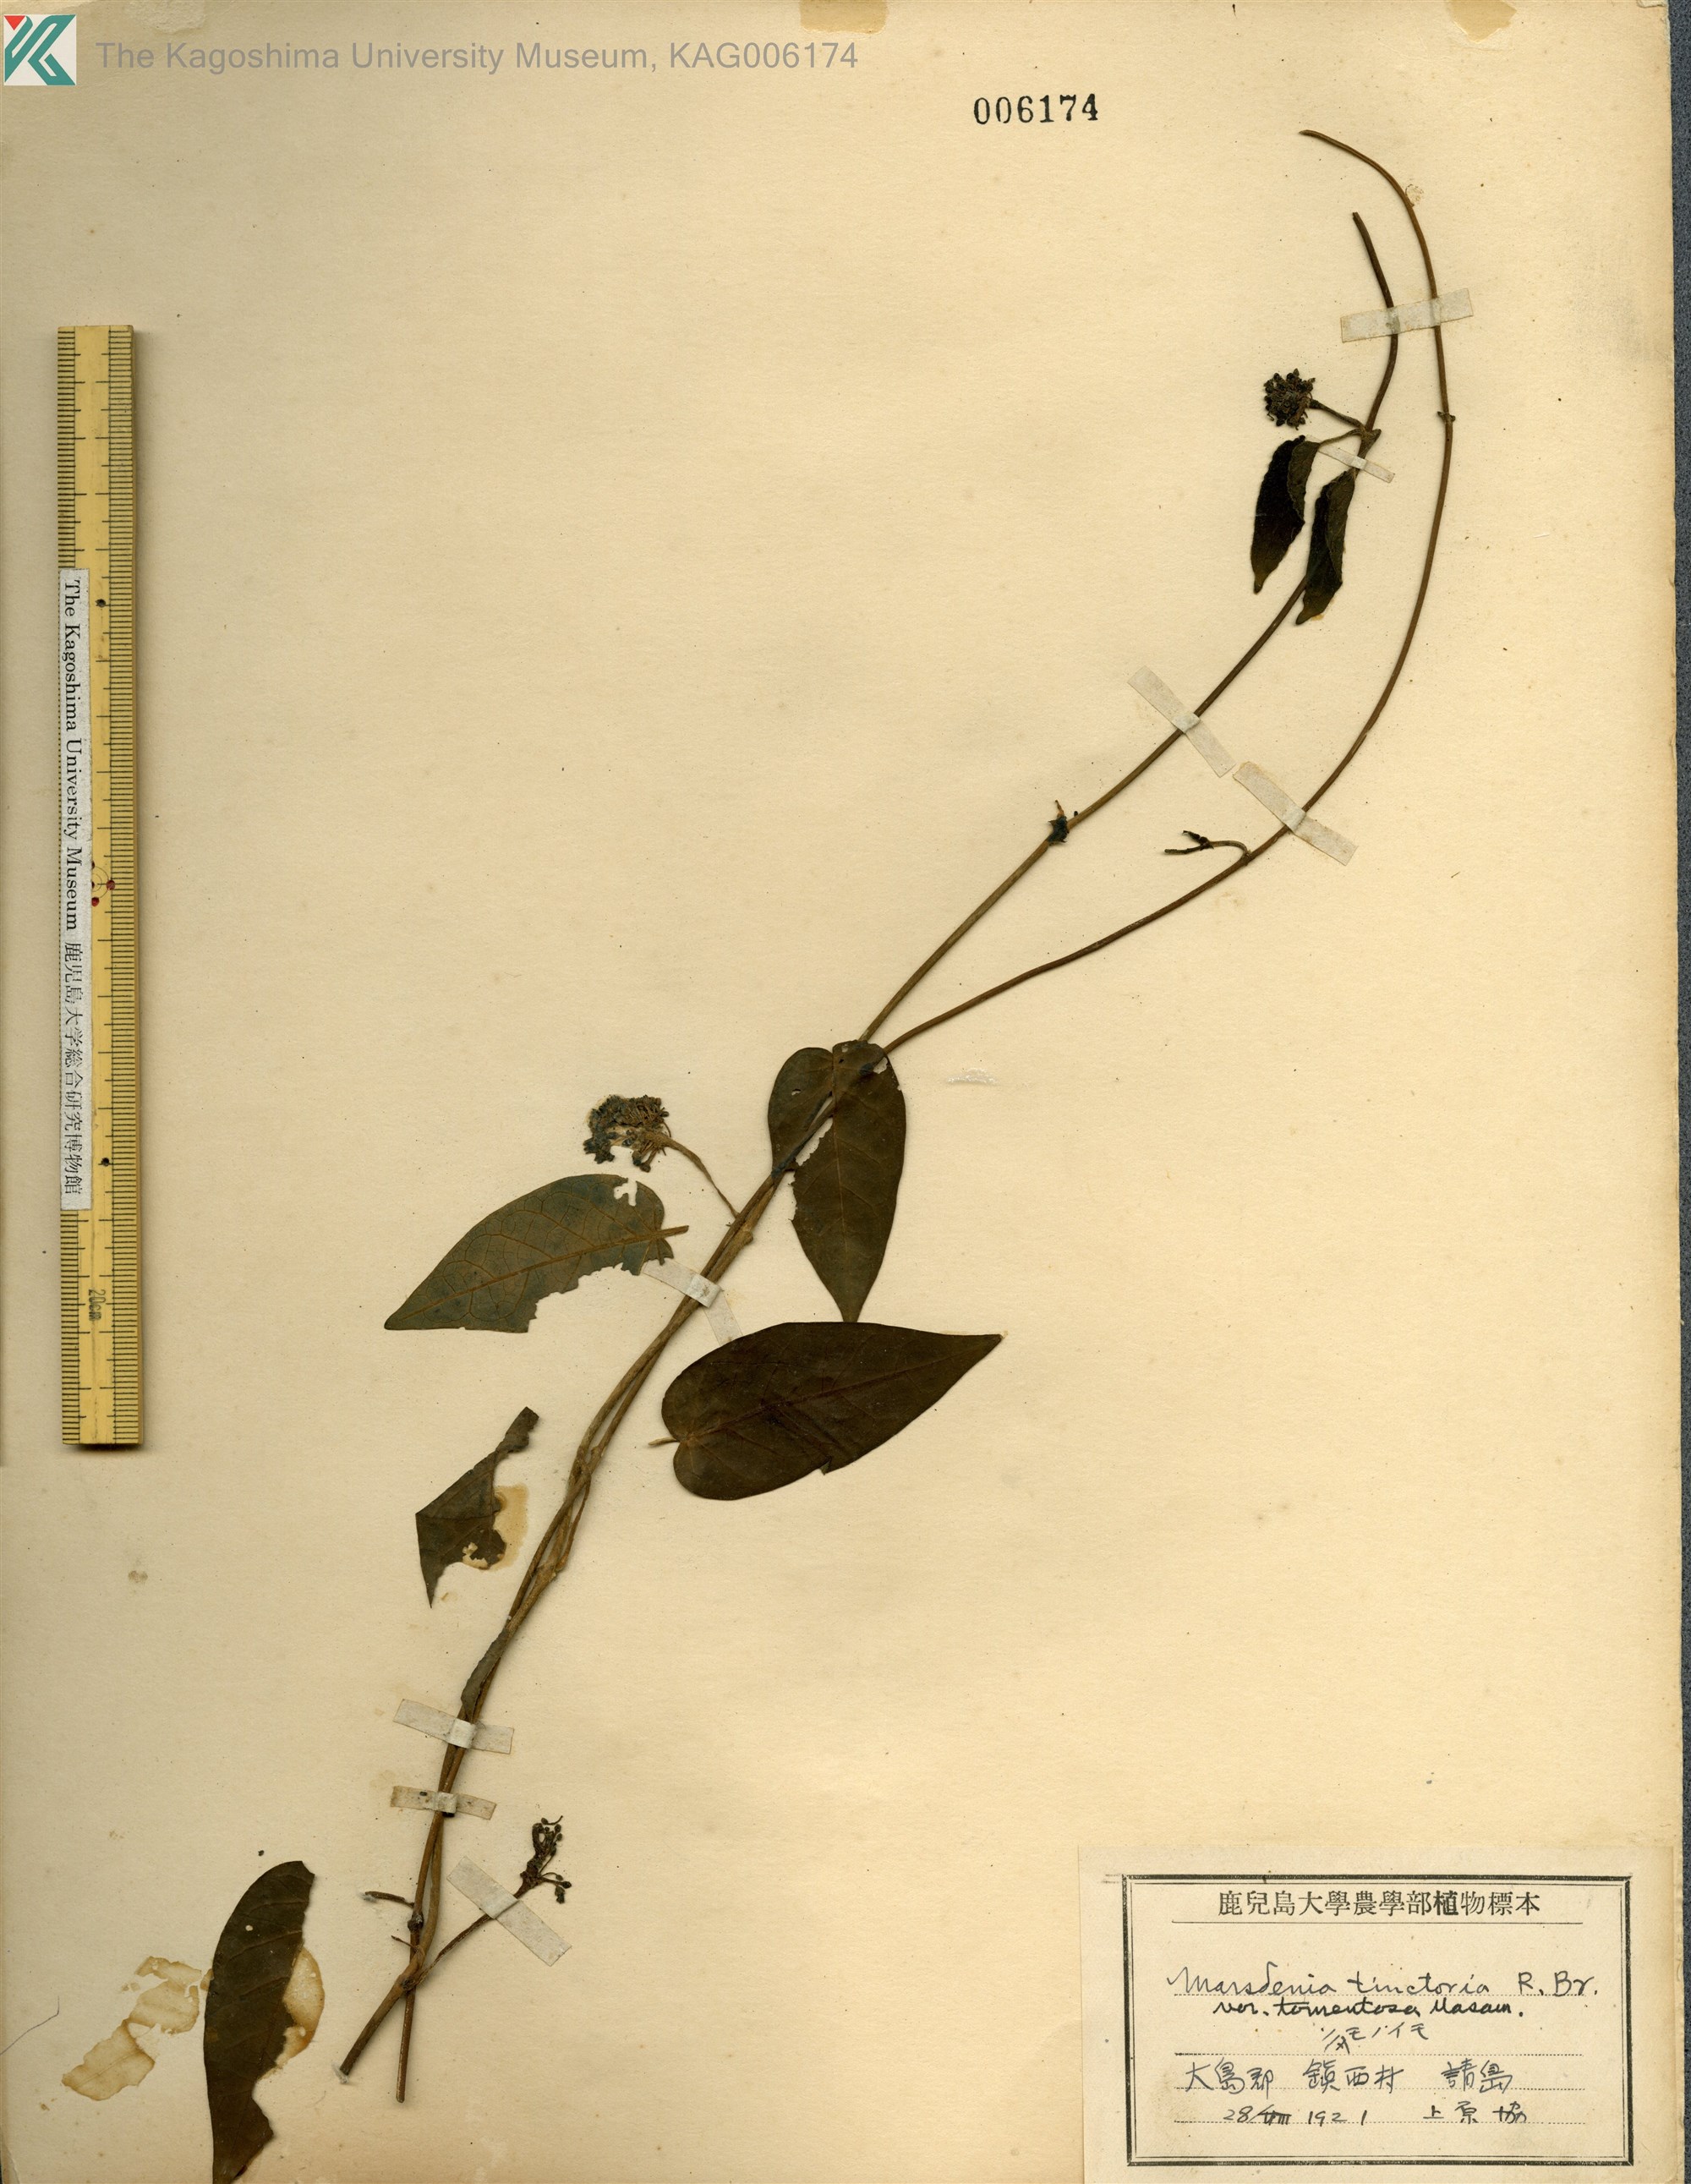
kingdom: Plantae
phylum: Tracheophyta
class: Magnoliopsida
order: Gentianales
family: Apocynaceae
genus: Marsdenia
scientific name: Marsdenia tinctoria
